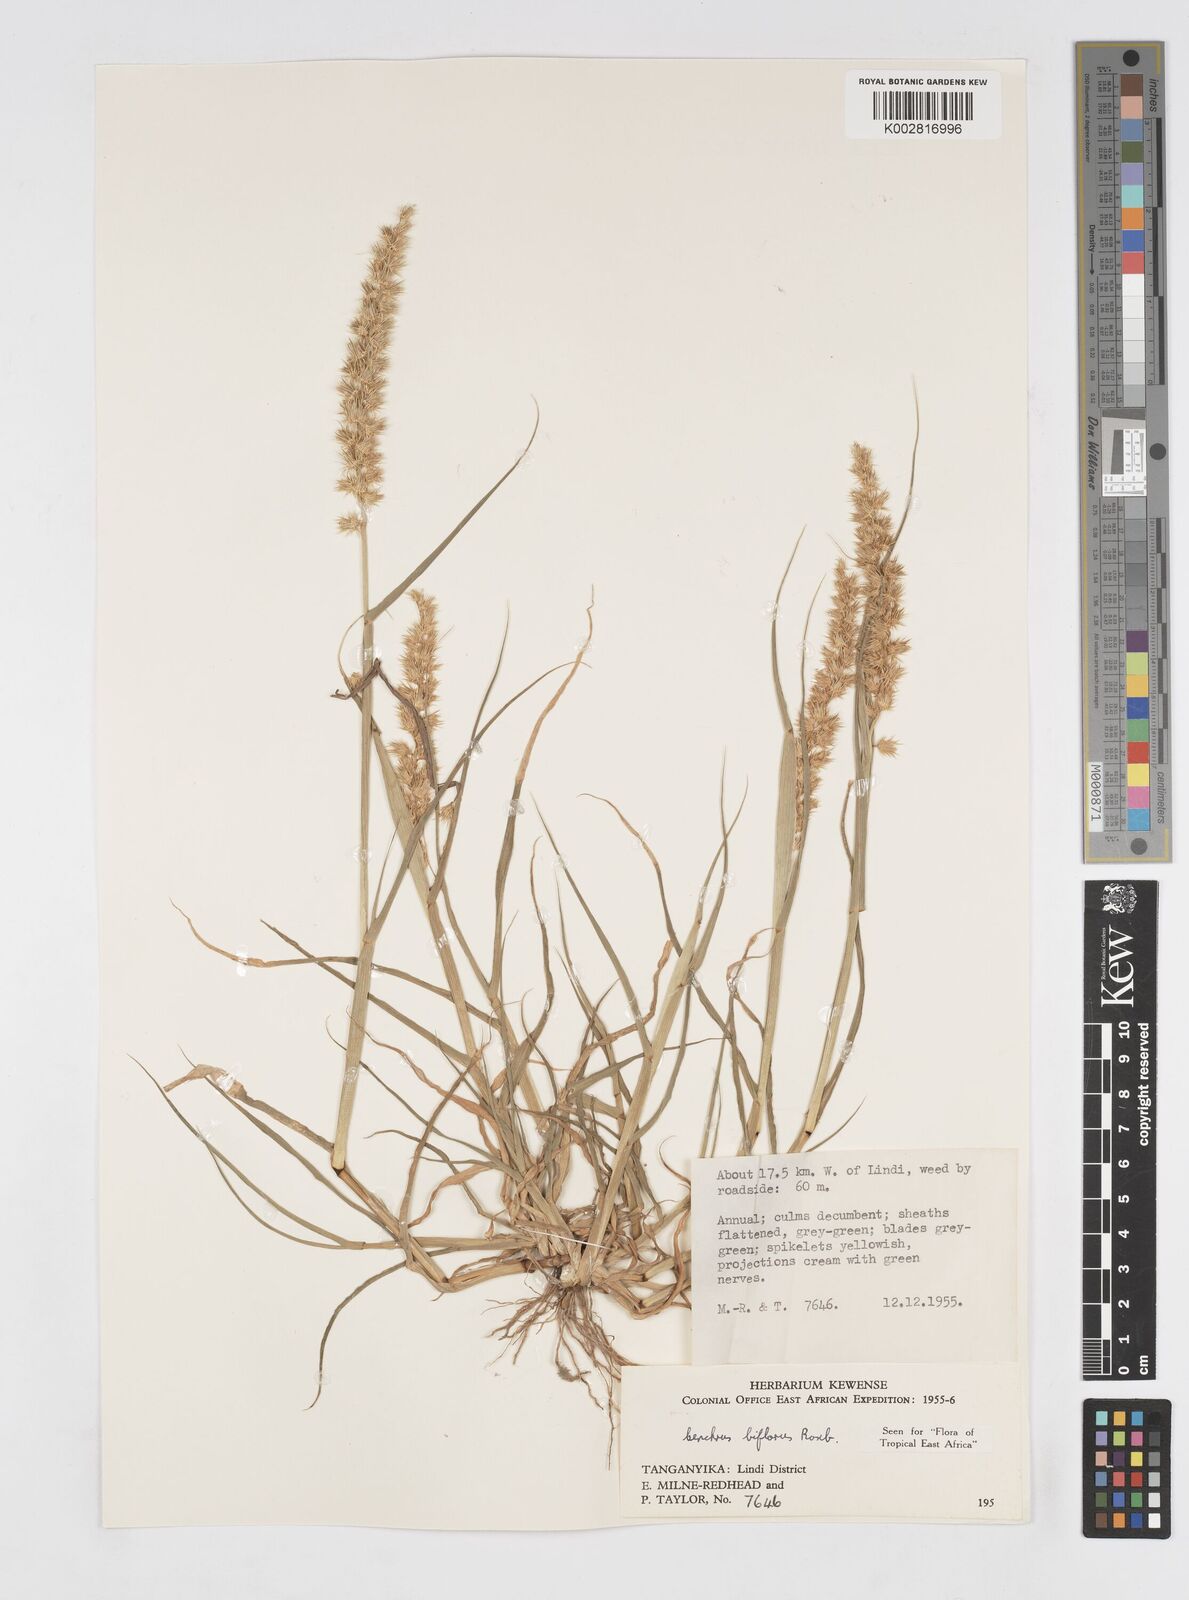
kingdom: Plantae
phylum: Tracheophyta
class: Liliopsida
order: Poales
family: Poaceae
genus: Cenchrus
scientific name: Cenchrus biflorus
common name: Indian sandbur
